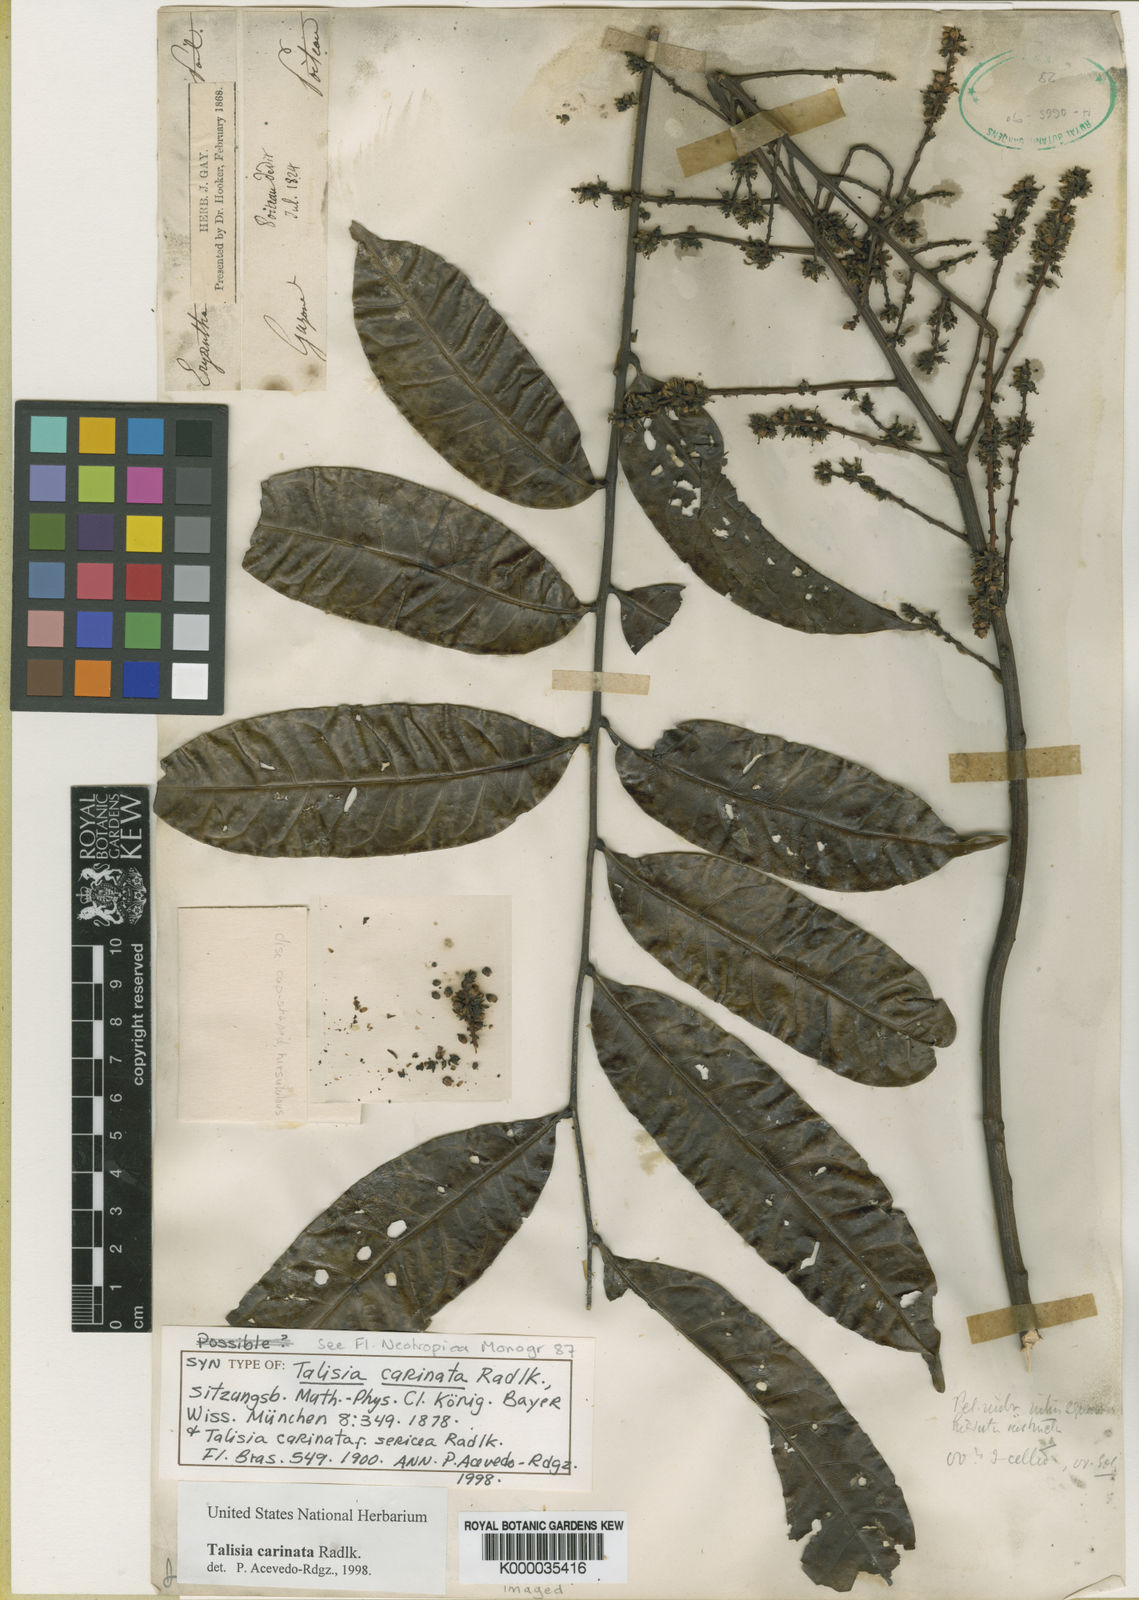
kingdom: Plantae
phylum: Tracheophyta
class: Magnoliopsida
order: Sapindales
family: Sapindaceae
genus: Talisia
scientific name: Talisia carinata
